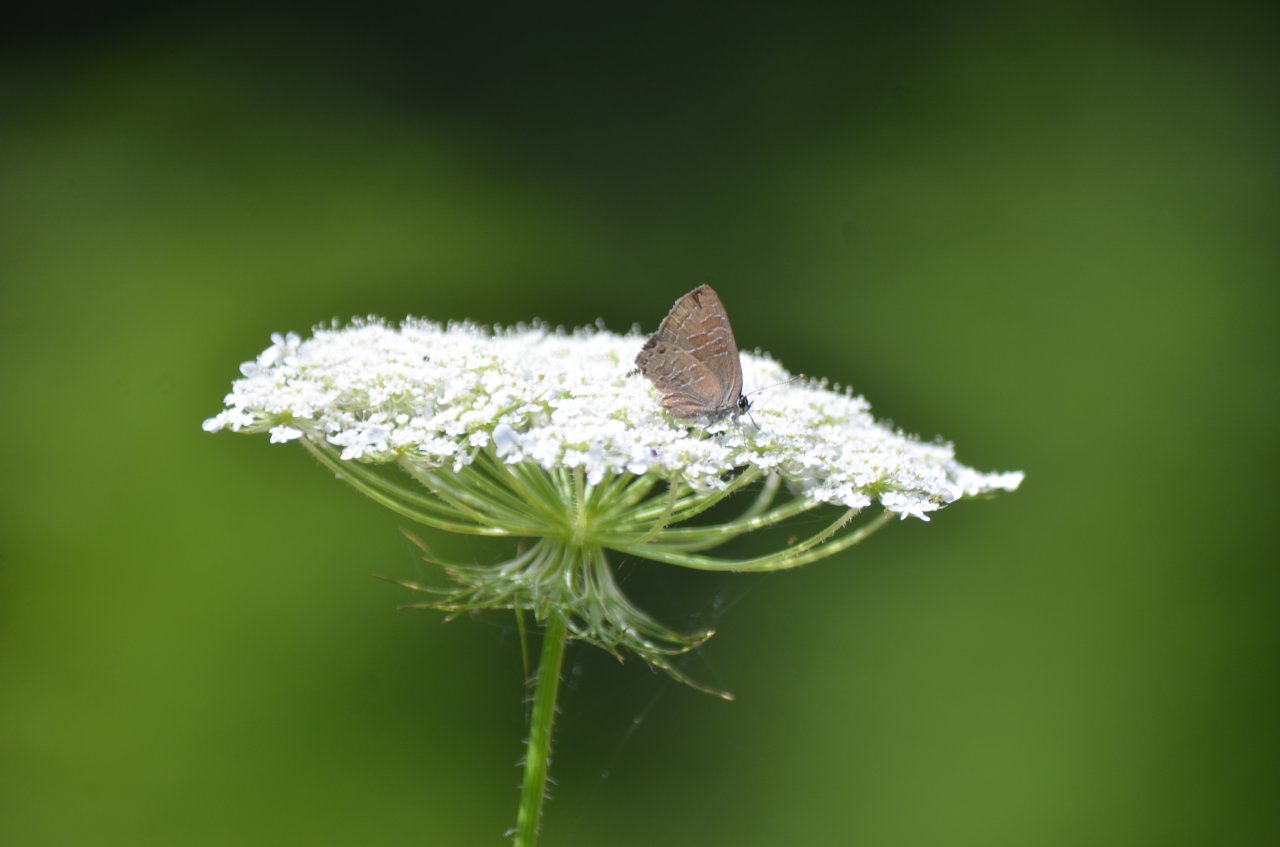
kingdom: Animalia
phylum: Arthropoda
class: Insecta
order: Lepidoptera
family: Lycaenidae
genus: Satyrium
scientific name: Satyrium liparops
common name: Striped Hairstreak
